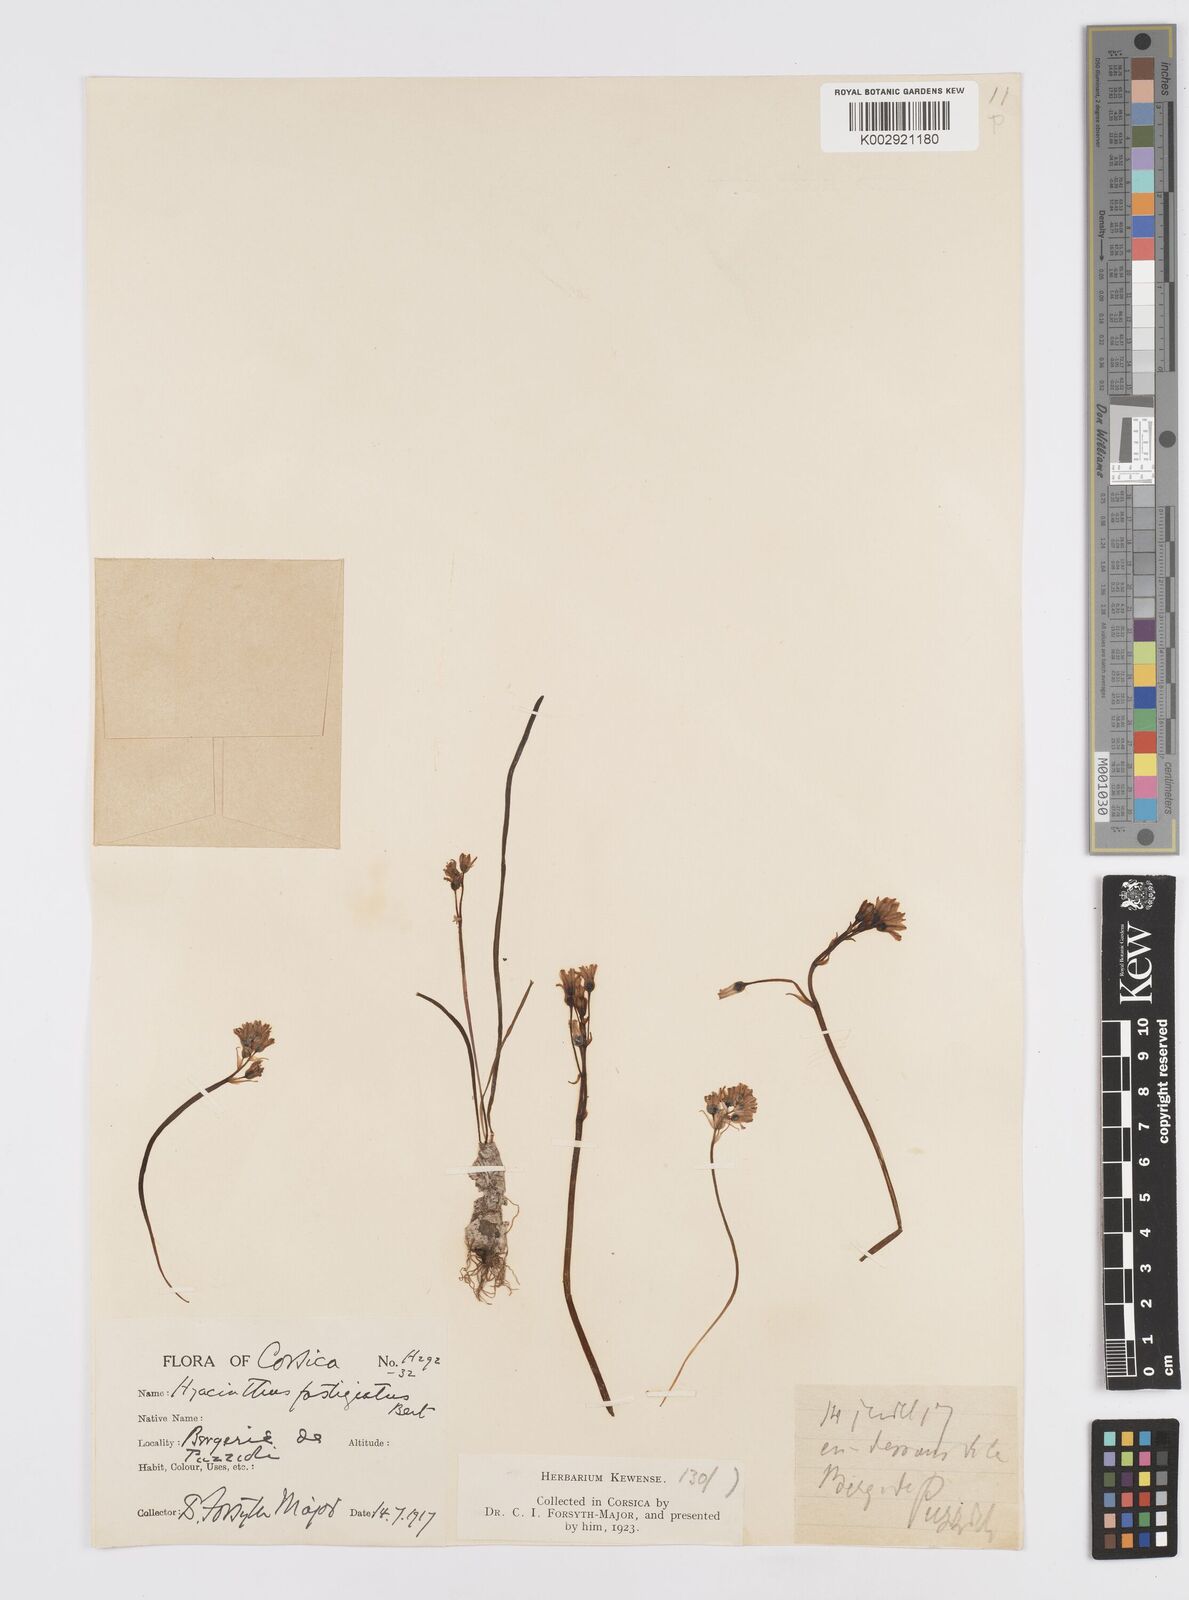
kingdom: Plantae
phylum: Tracheophyta
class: Liliopsida
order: Asparagales
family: Asparagaceae
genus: Brimeura
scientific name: Brimeura fastigiata
